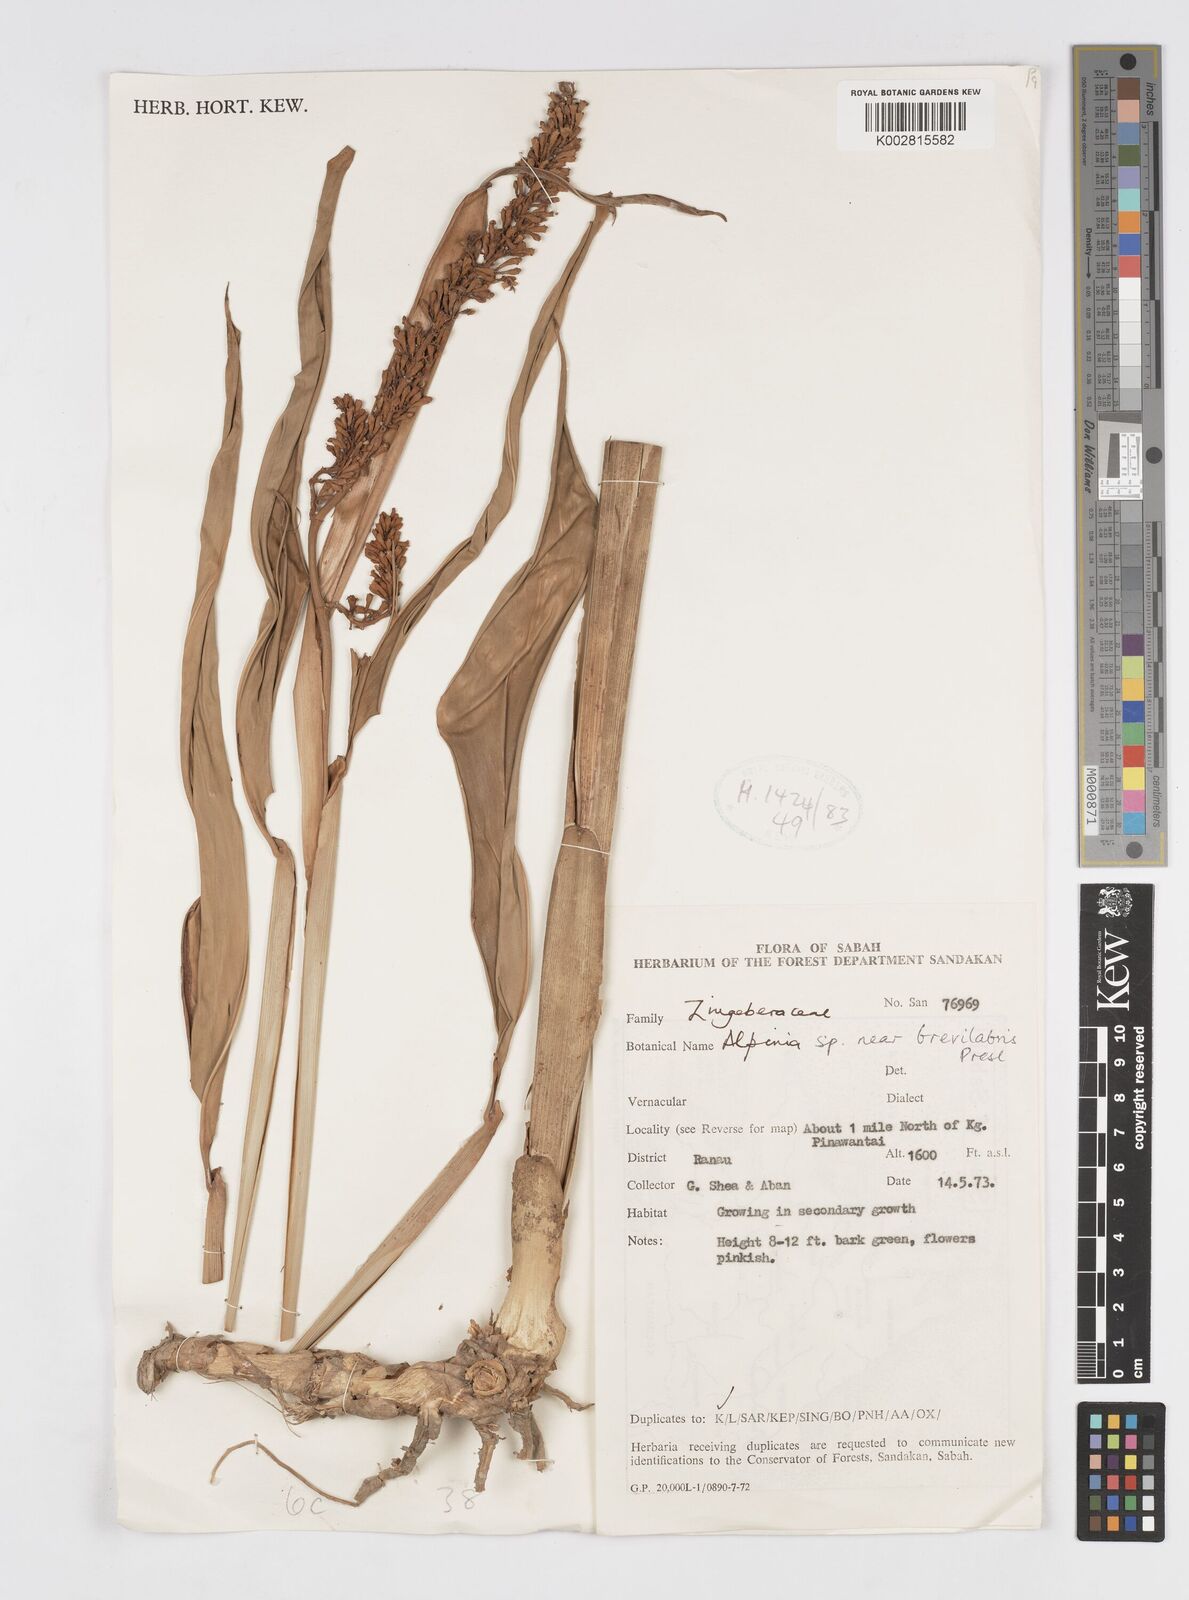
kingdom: Plantae
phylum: Tracheophyta
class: Liliopsida
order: Zingiberales
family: Zingiberaceae
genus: Alpinia
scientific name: Alpinia brevilabris
